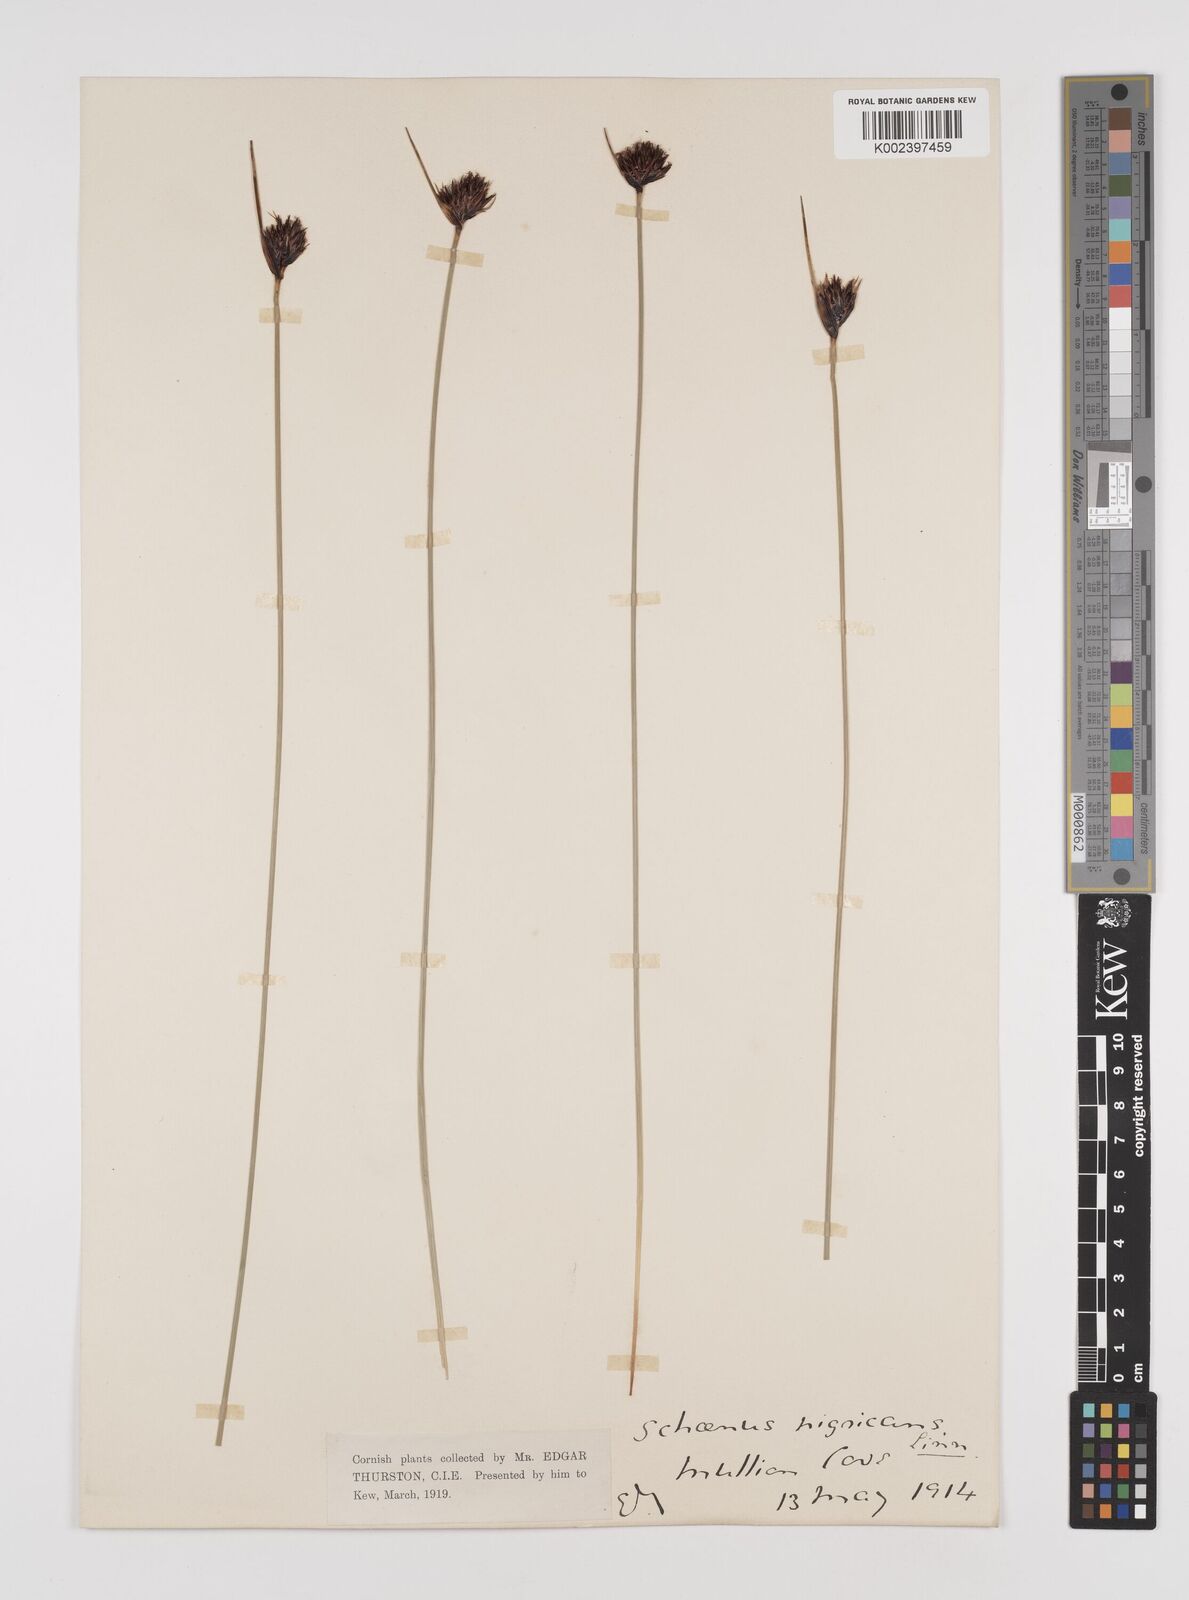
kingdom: Plantae
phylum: Tracheophyta
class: Liliopsida
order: Poales
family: Cyperaceae
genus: Schoenus
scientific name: Schoenus nigricans
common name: Black bog-rush
